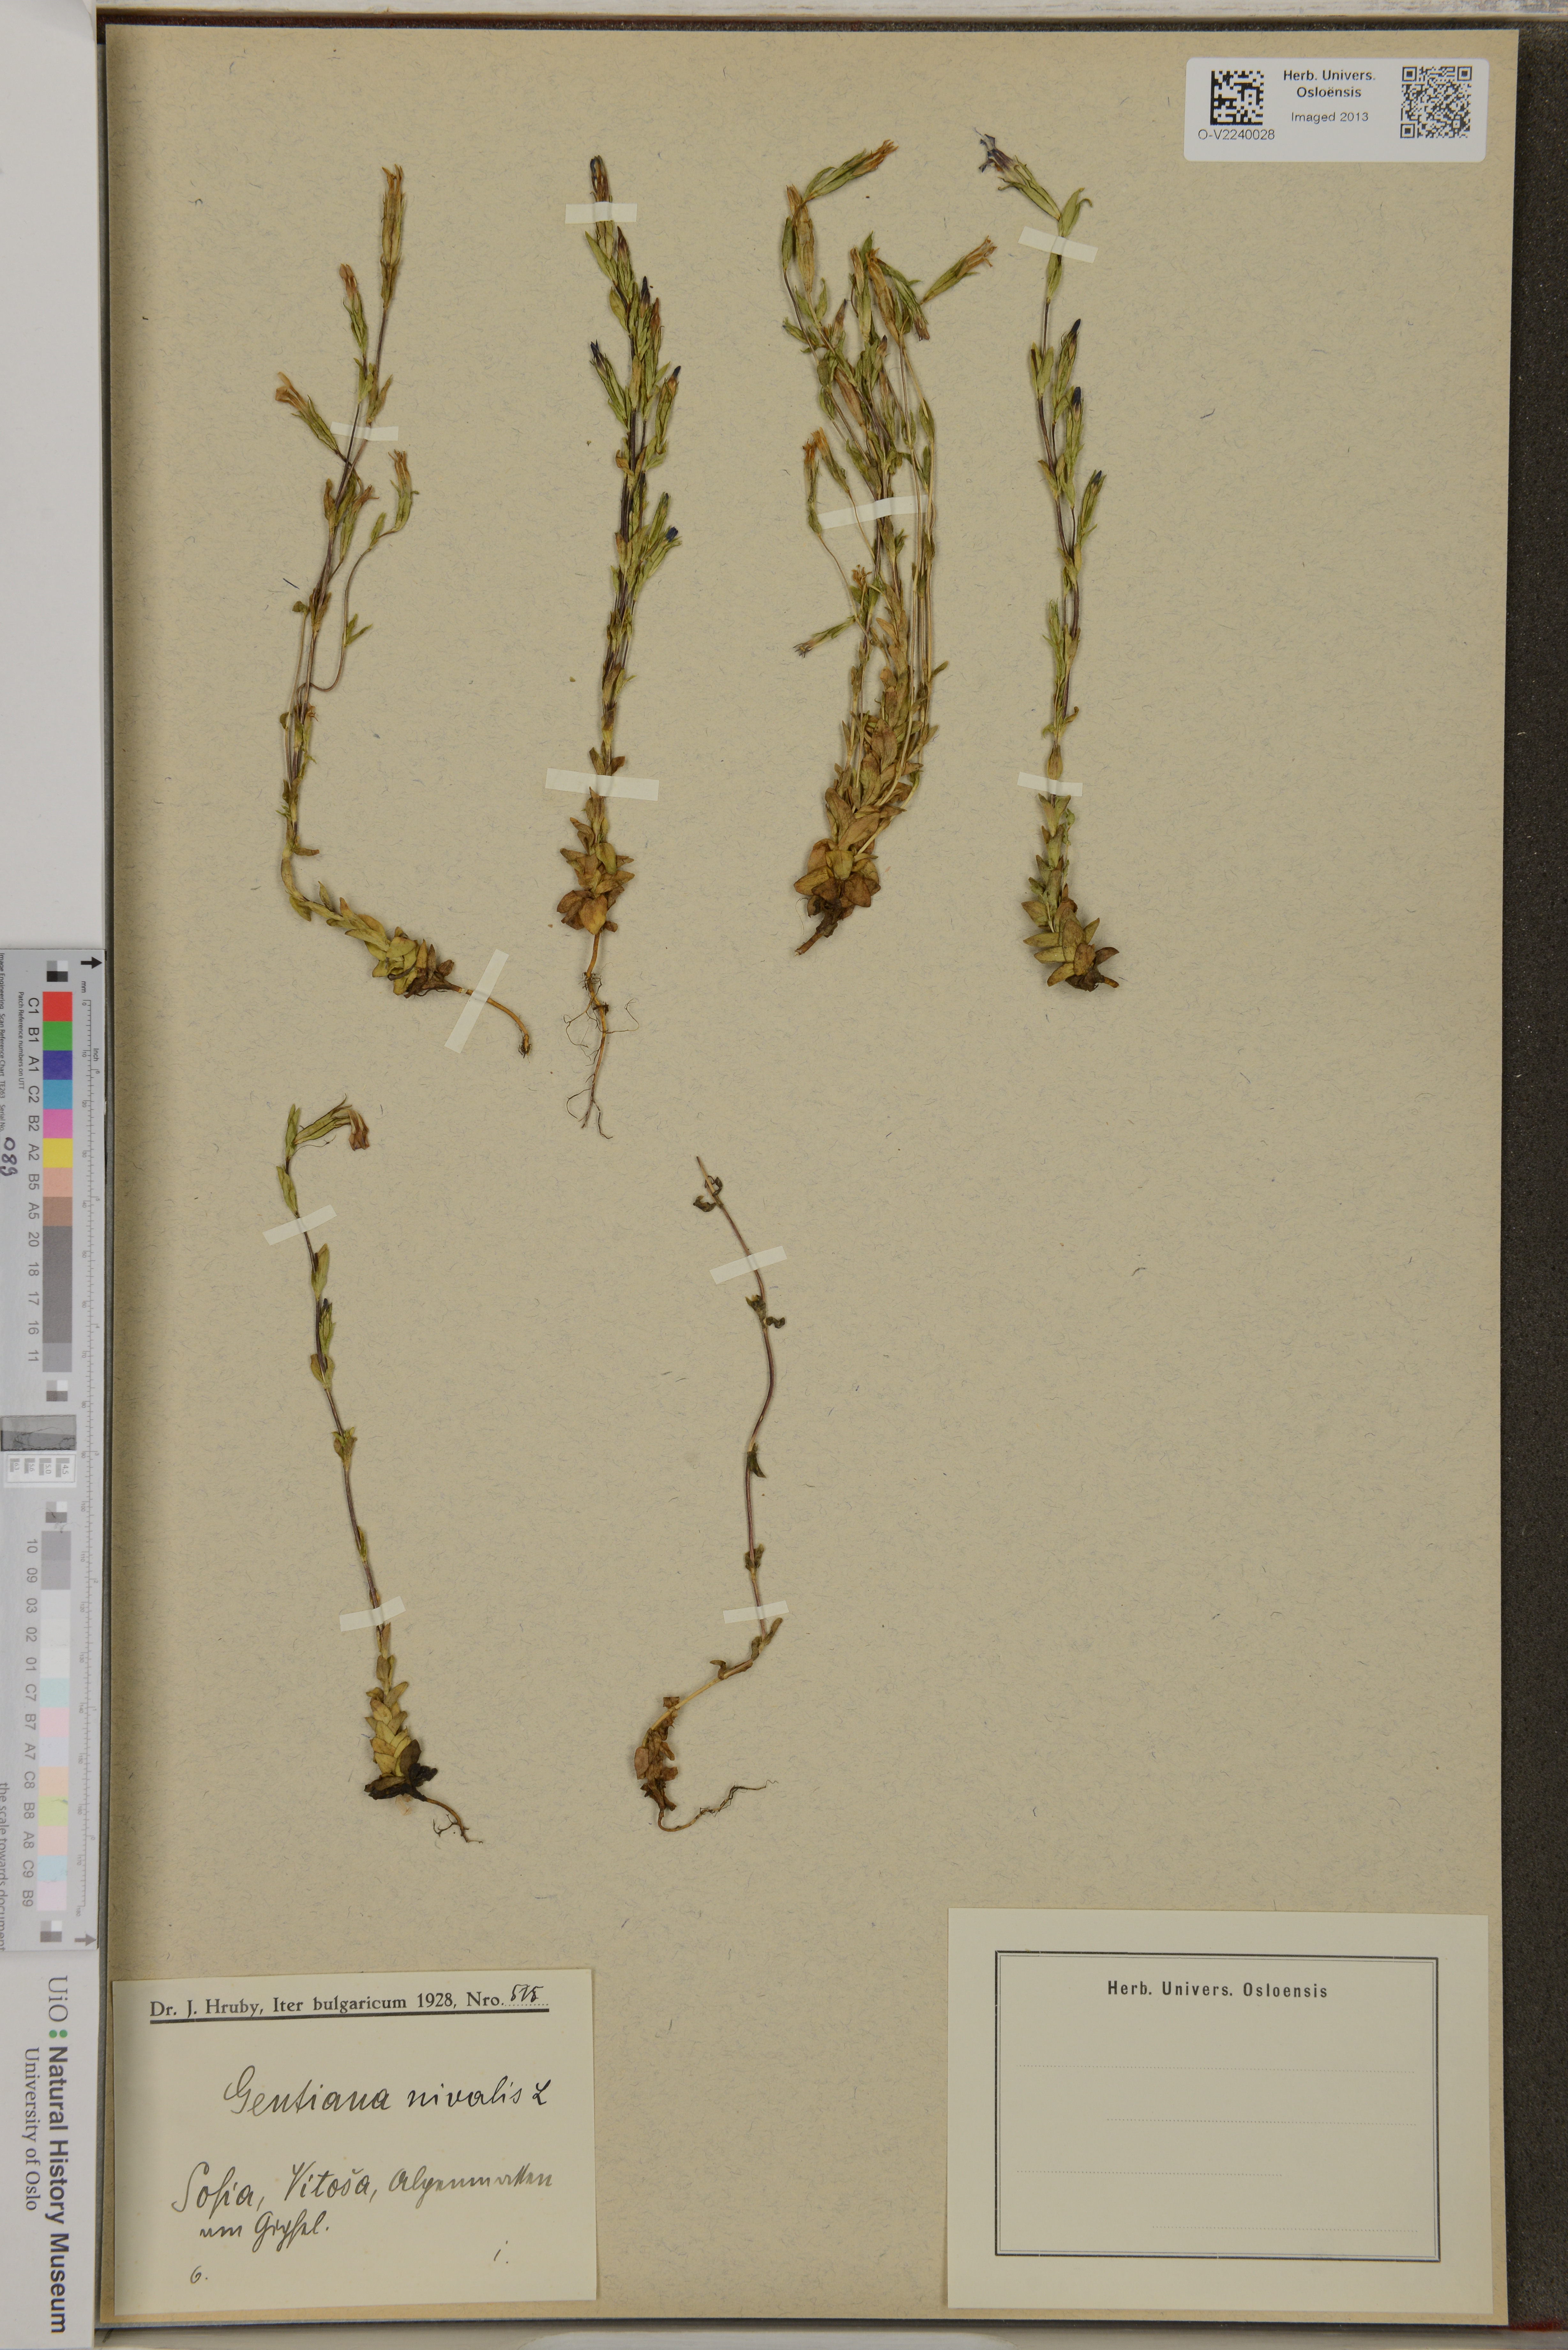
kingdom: Plantae
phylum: Tracheophyta
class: Magnoliopsida
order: Gentianales
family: Gentianaceae
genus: Gentiana
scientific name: Gentiana nivalis
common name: Alpine gentian
